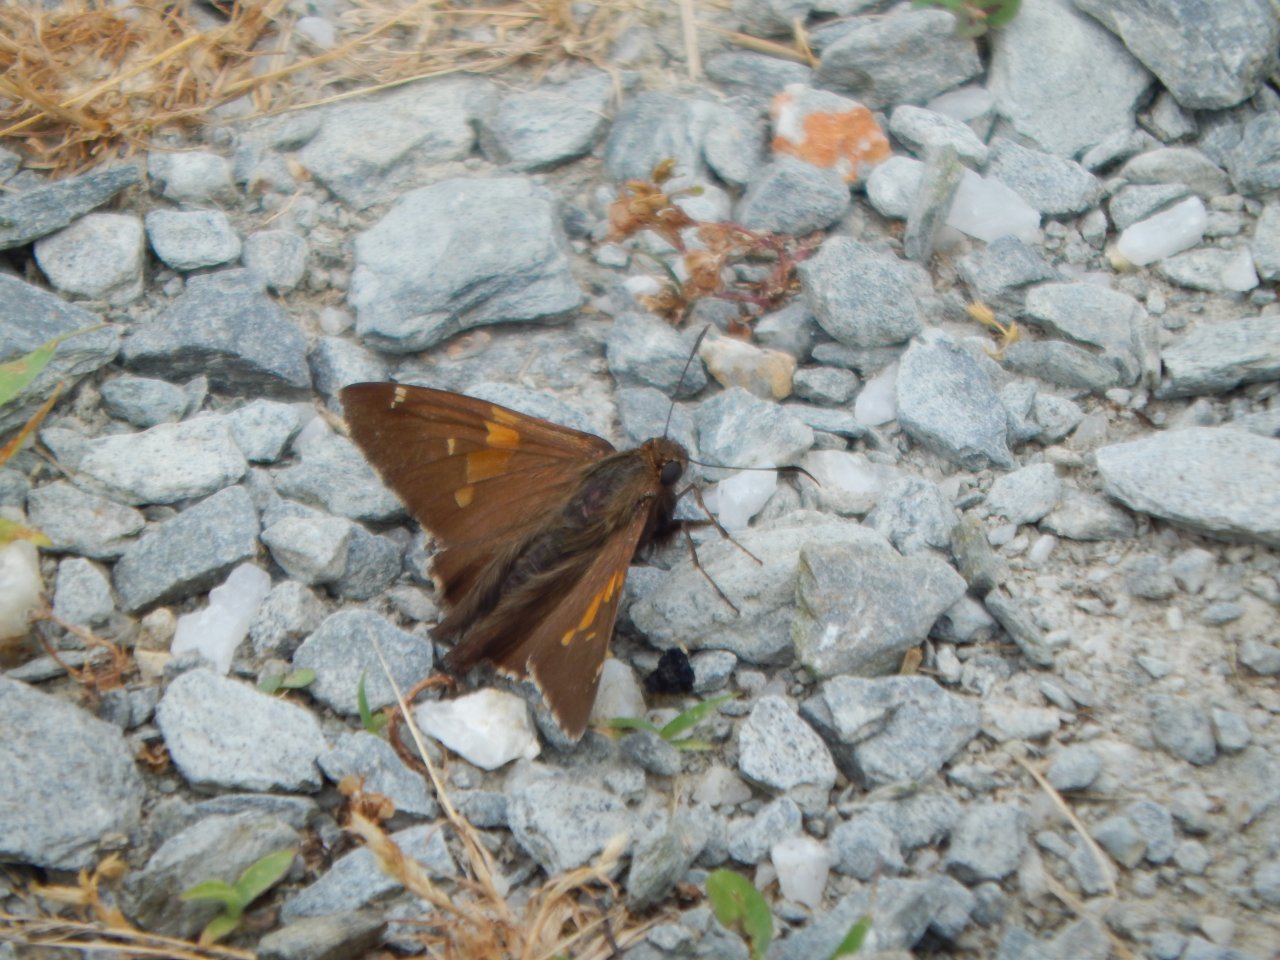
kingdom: Animalia
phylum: Arthropoda
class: Insecta
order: Lepidoptera
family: Hesperiidae
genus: Epargyreus
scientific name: Epargyreus clarus
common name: Silver-spotted Skipper
